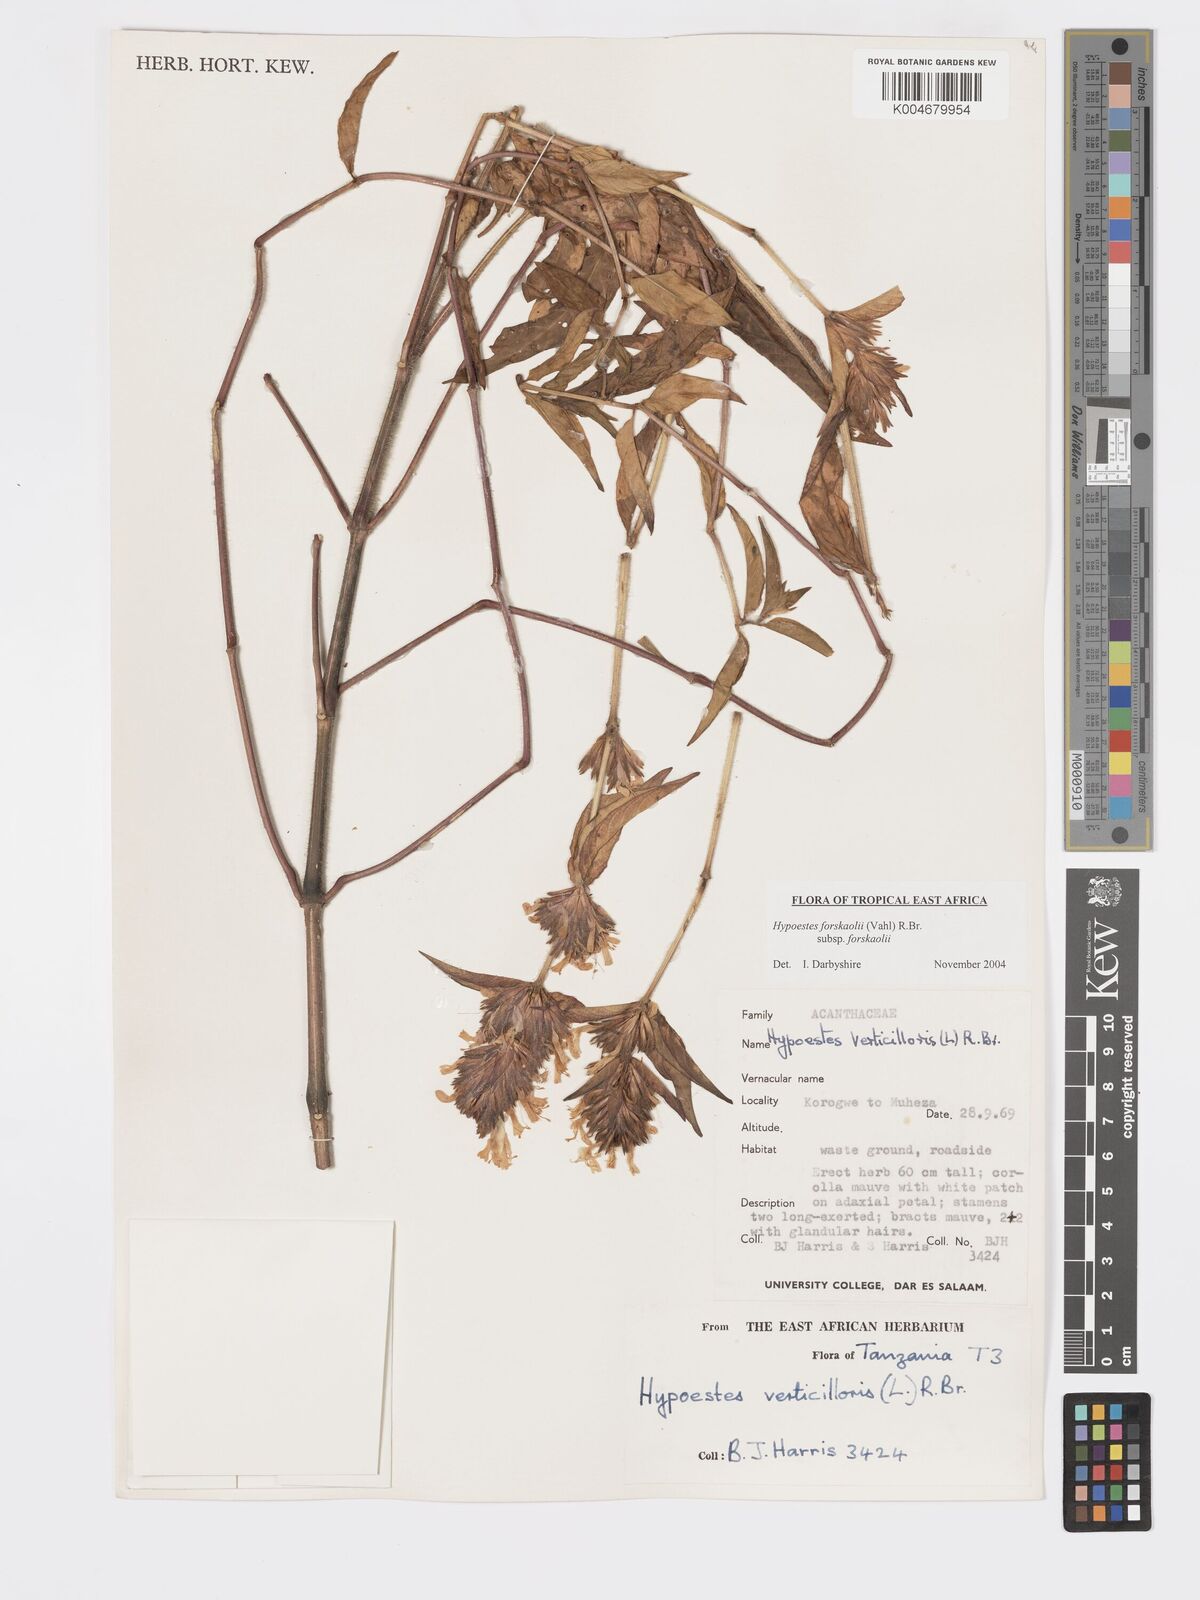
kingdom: Plantae
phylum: Tracheophyta
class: Magnoliopsida
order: Lamiales
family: Acanthaceae
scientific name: Acanthaceae
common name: Acanthaceae
